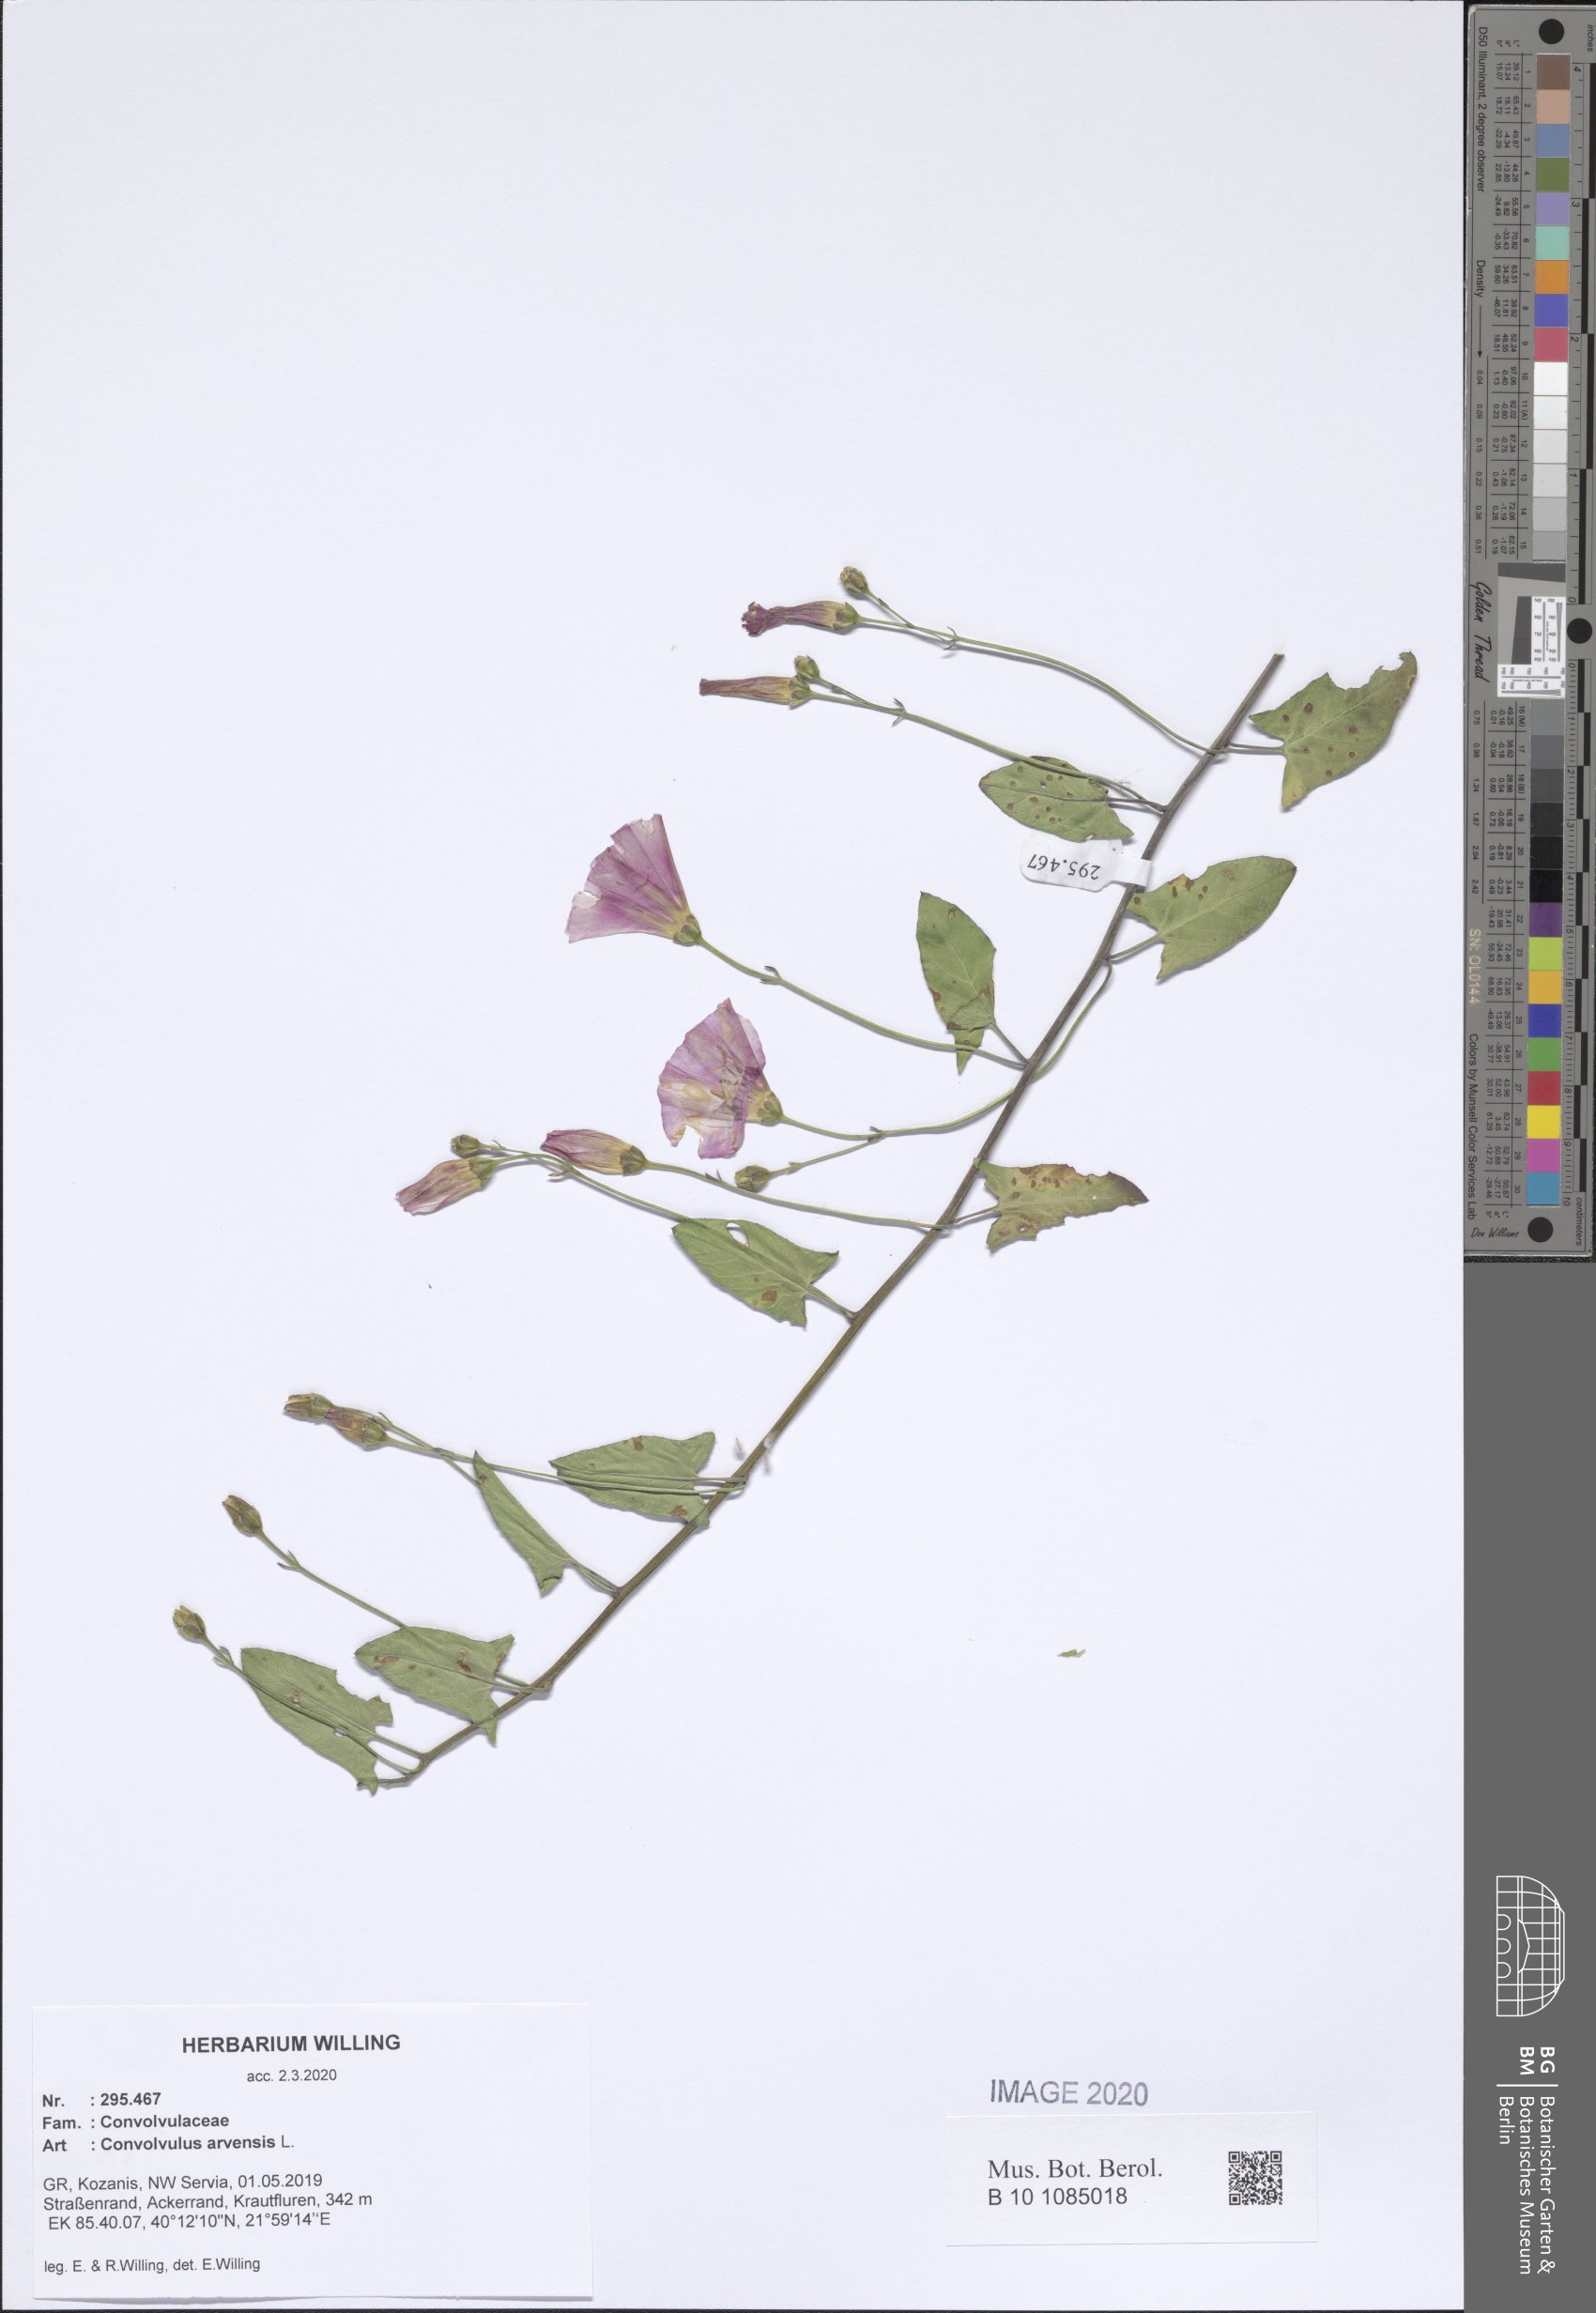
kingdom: Plantae
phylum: Tracheophyta
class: Magnoliopsida
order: Solanales
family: Convolvulaceae
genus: Convolvulus
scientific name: Convolvulus arvensis
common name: Field bindweed
